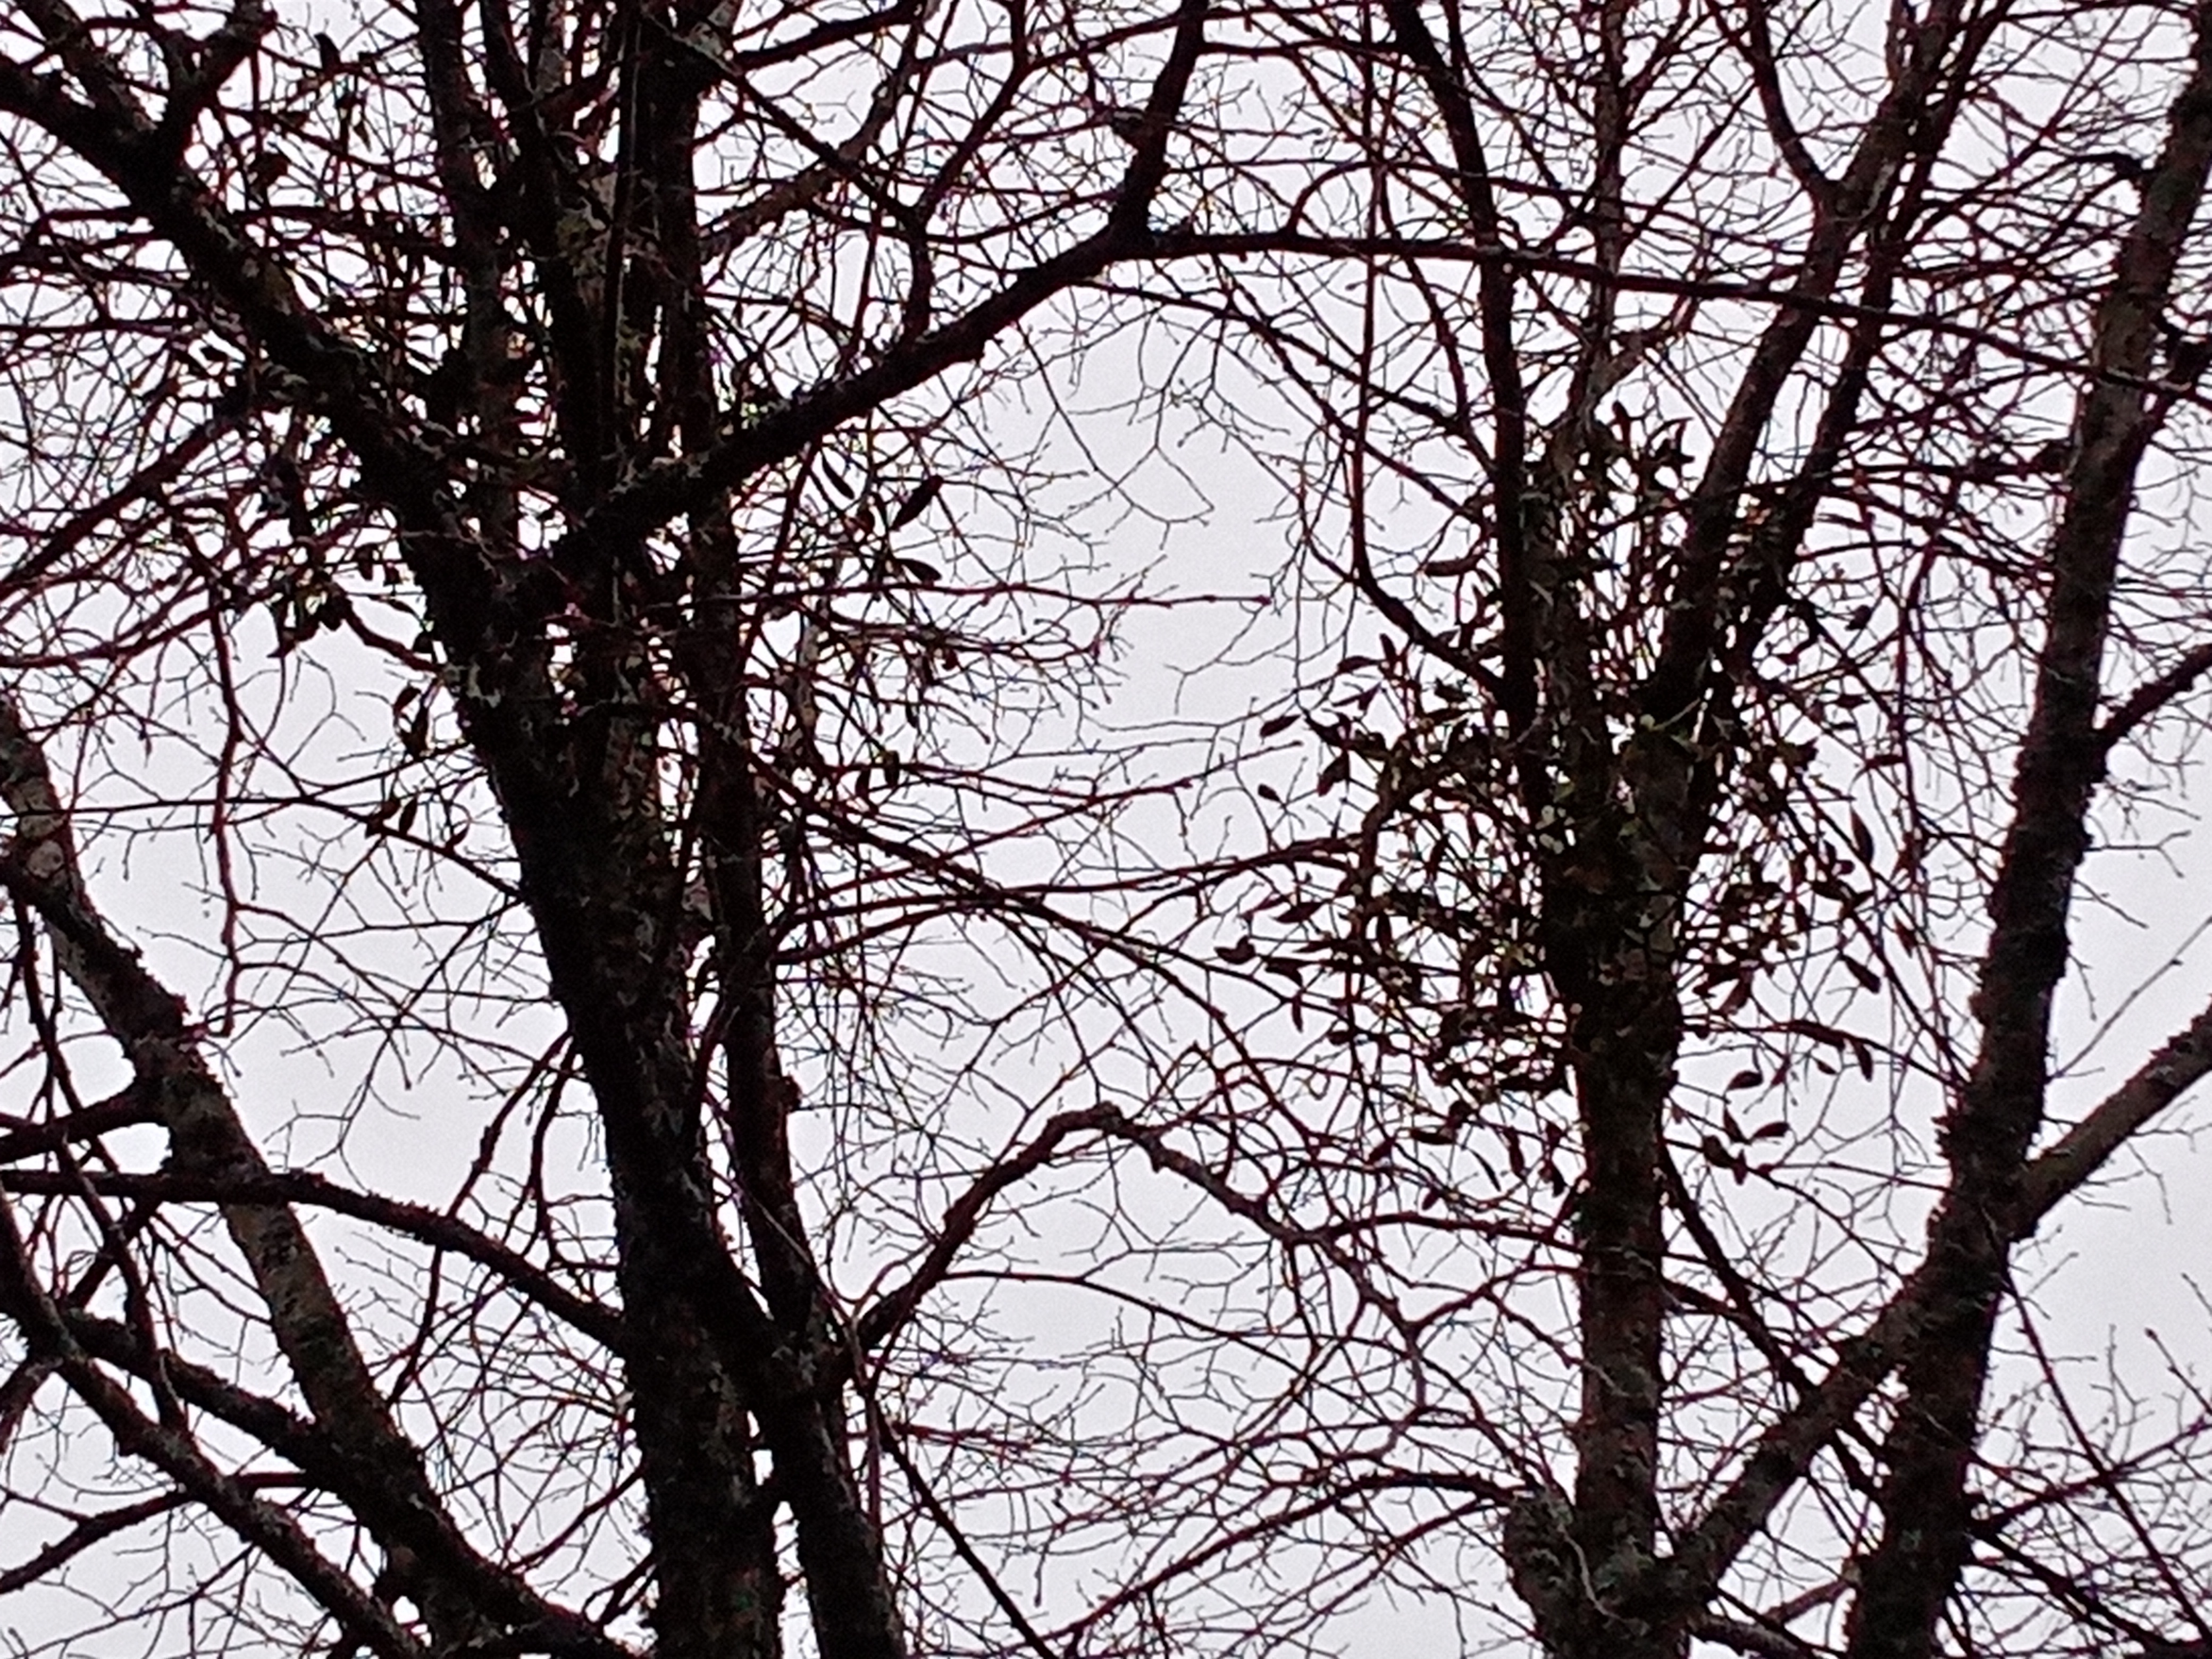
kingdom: Plantae
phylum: Tracheophyta
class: Magnoliopsida
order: Santalales
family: Viscaceae
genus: Viscum
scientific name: Viscum album
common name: Mistletoe
